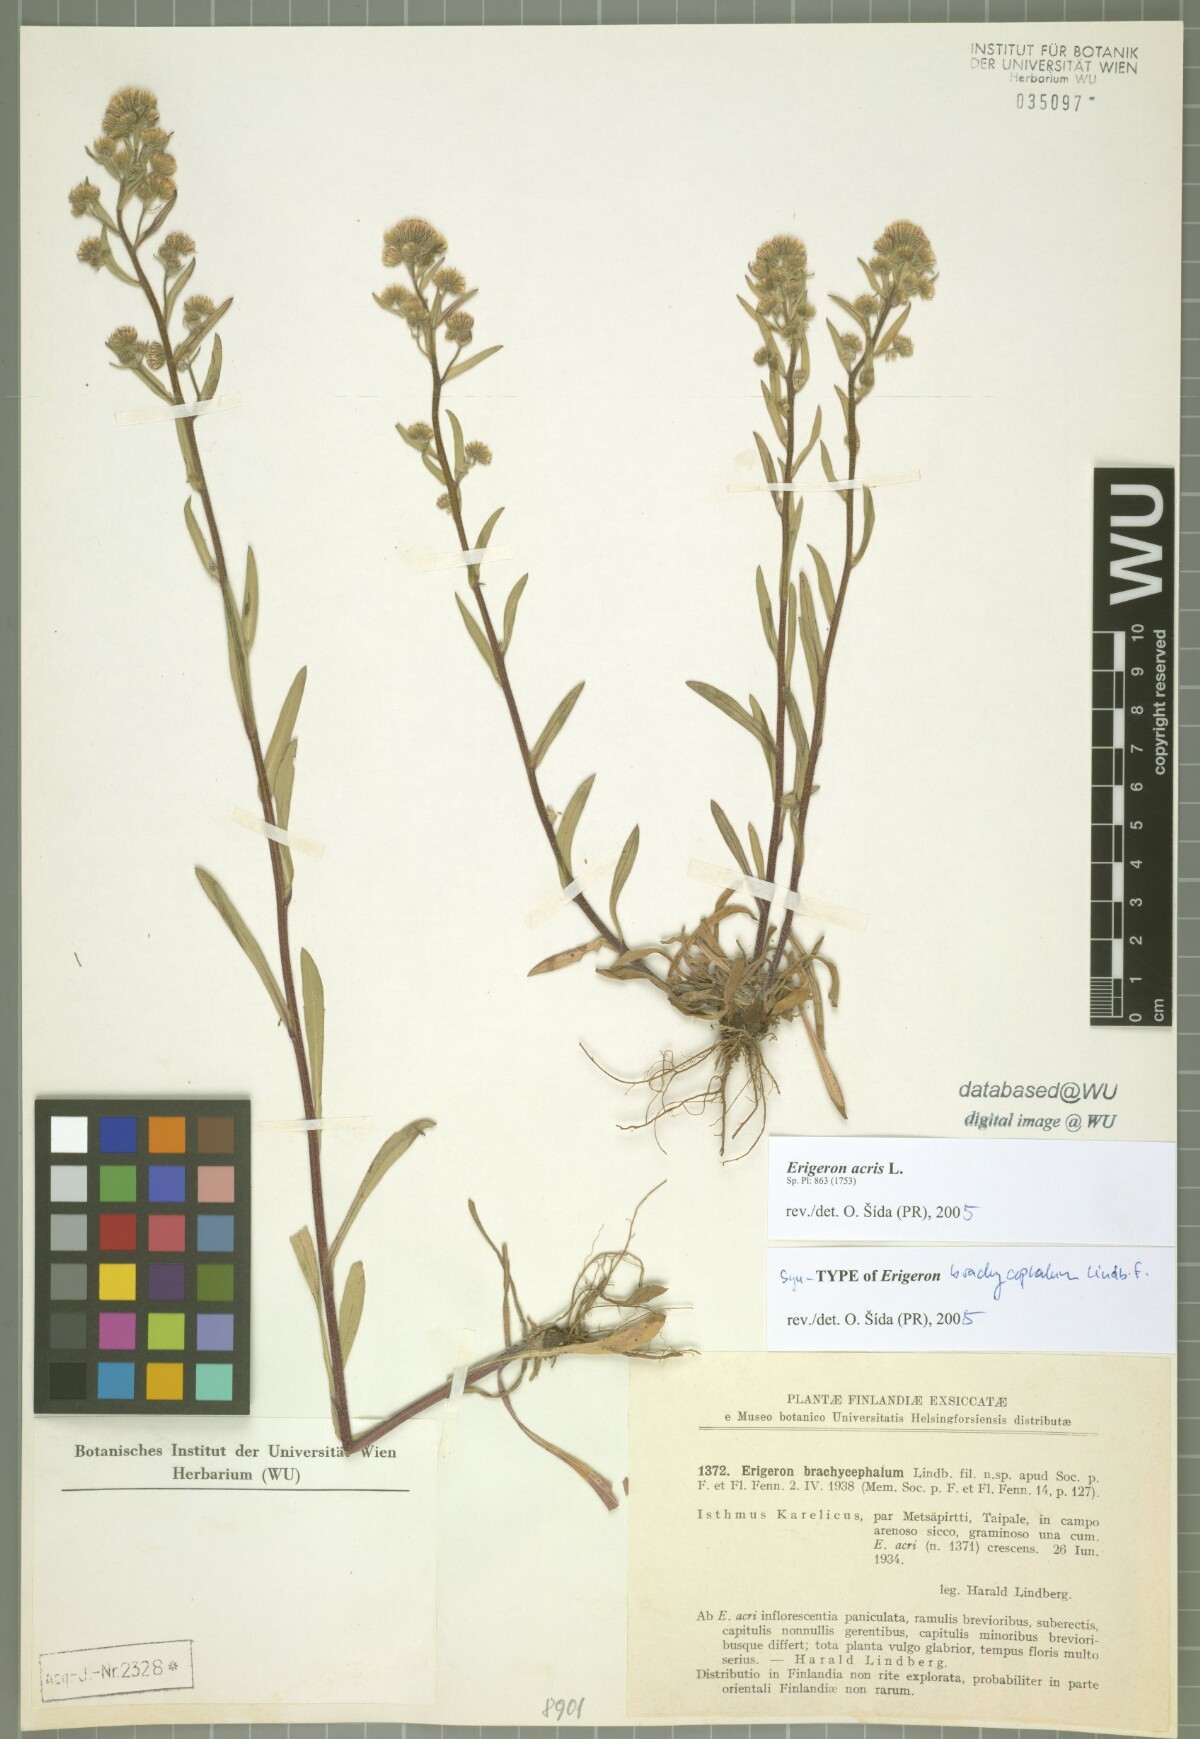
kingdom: Plantae
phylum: Tracheophyta
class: Magnoliopsida
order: Asterales
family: Asteraceae
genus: Erigeron
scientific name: Erigeron brachycephalus
